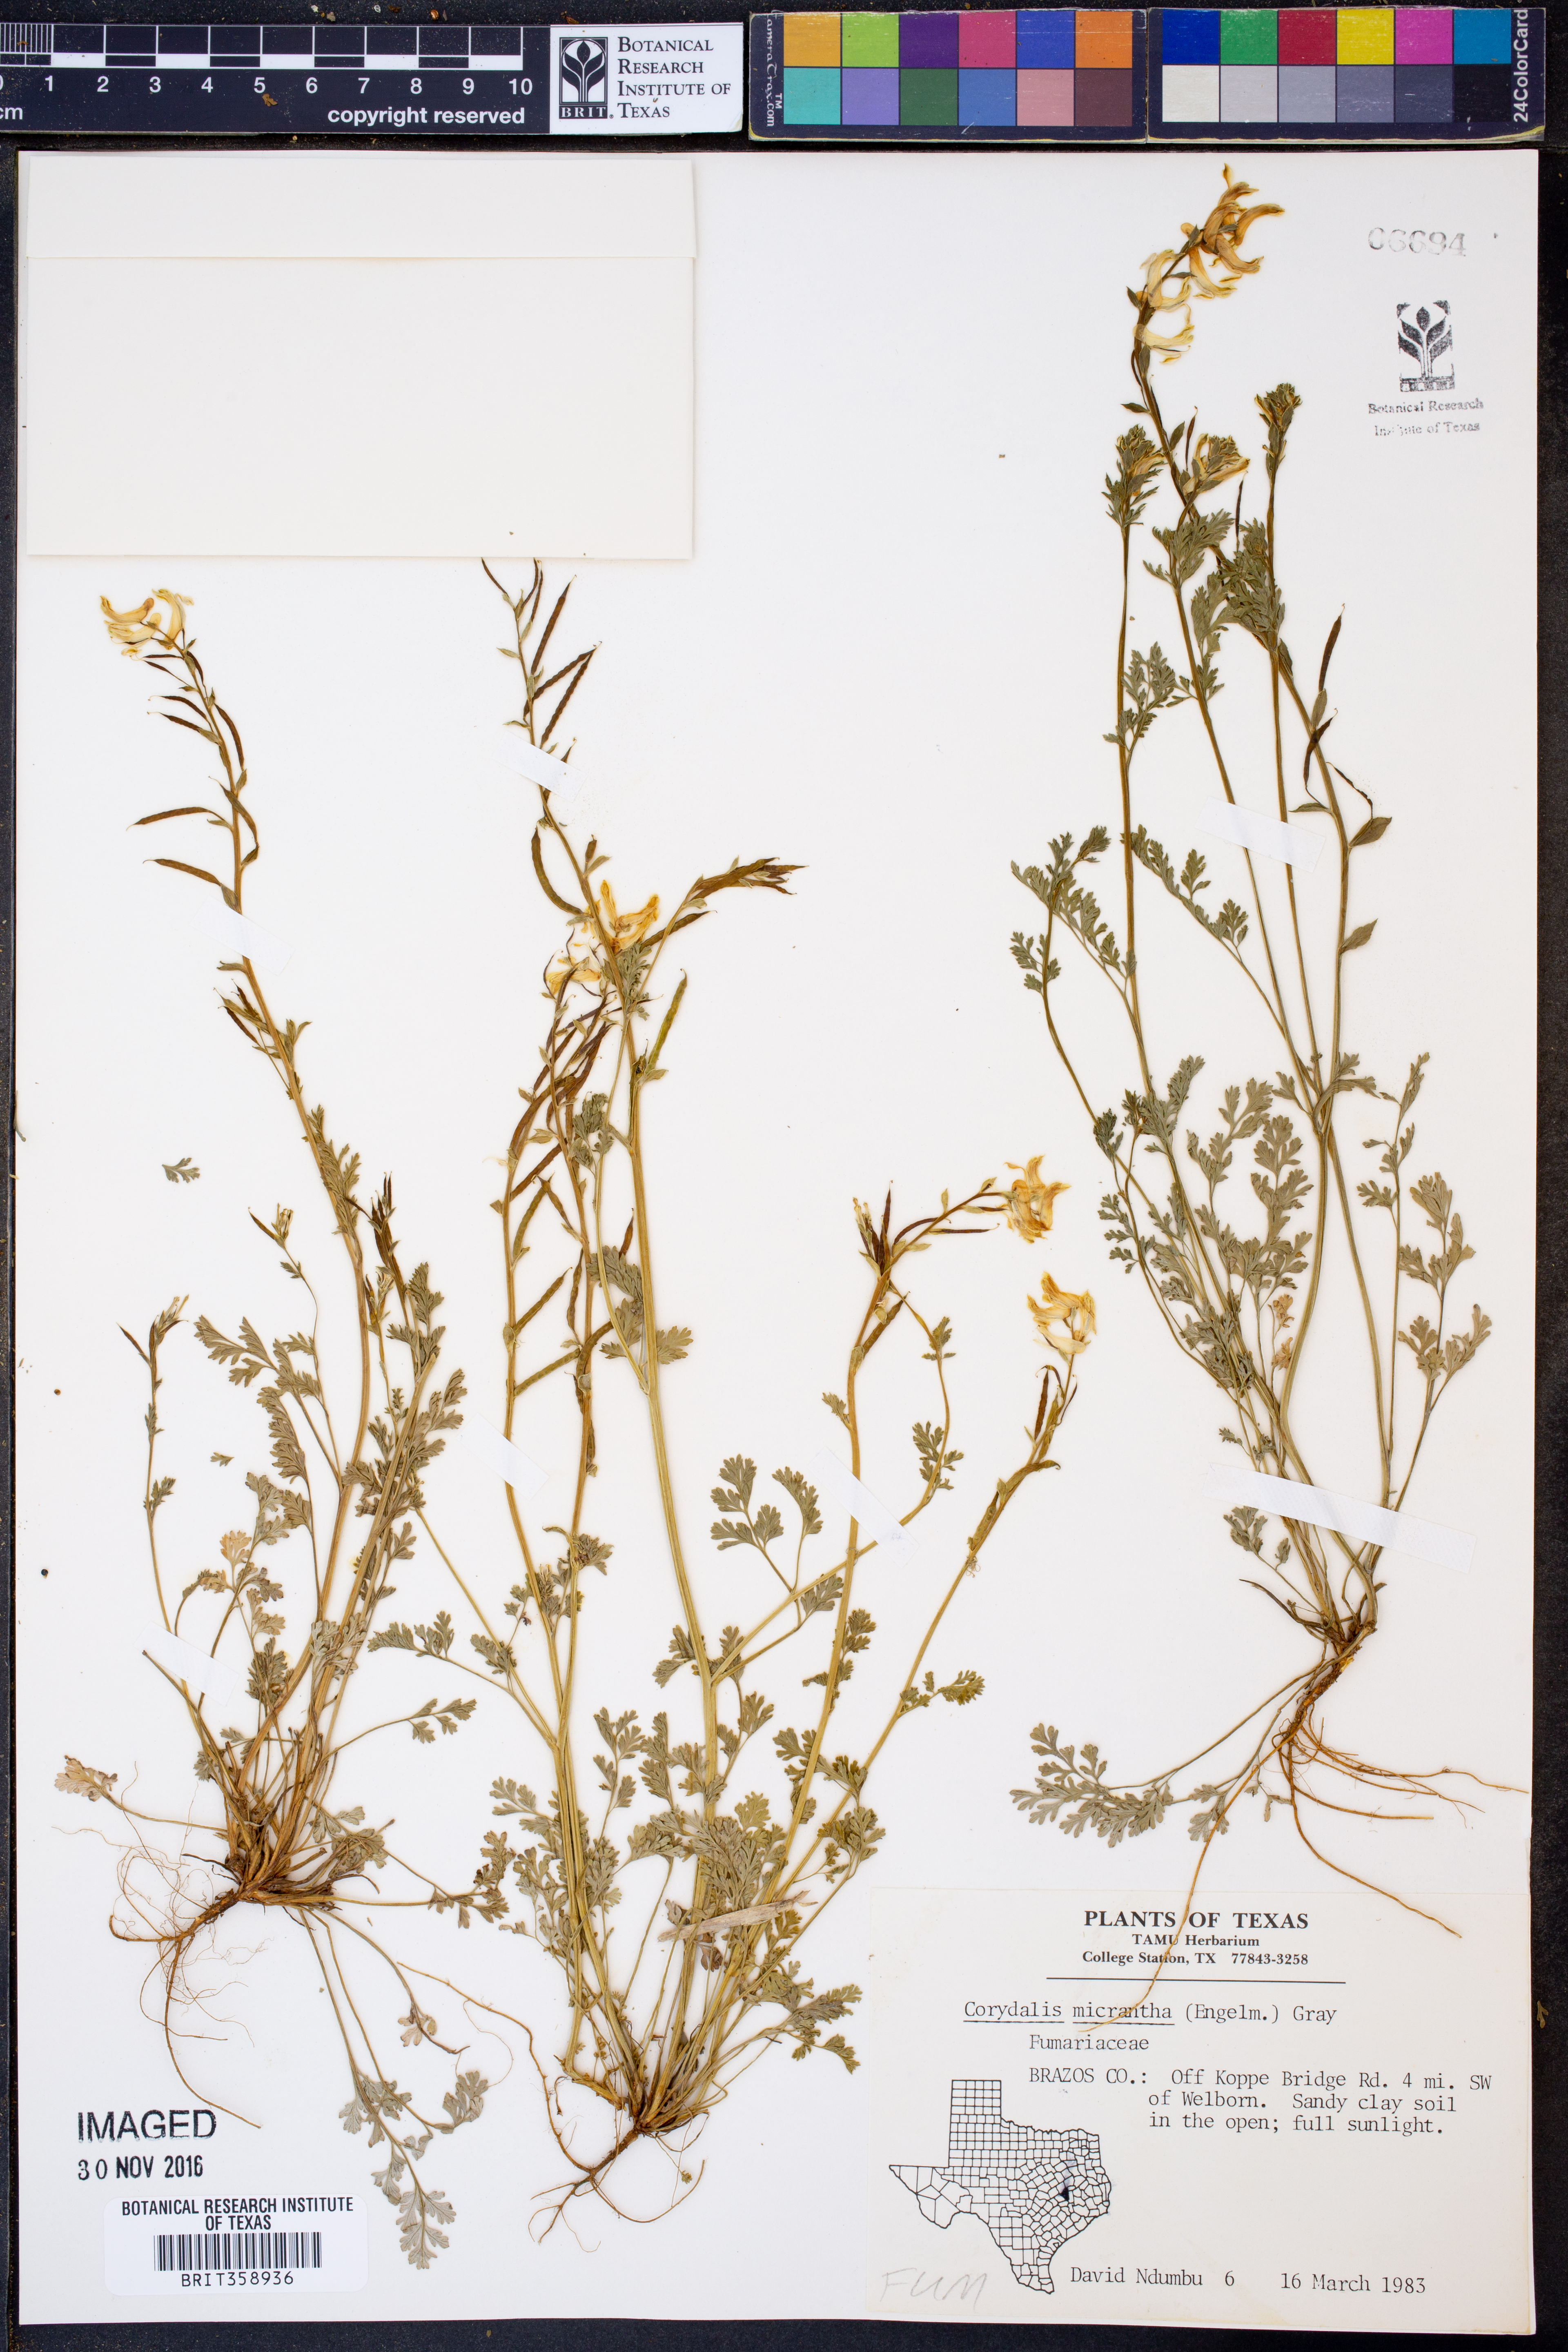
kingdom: Plantae
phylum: Tracheophyta
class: Magnoliopsida
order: Ranunculales
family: Papaveraceae
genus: Corydalis
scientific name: Corydalis micrantha
